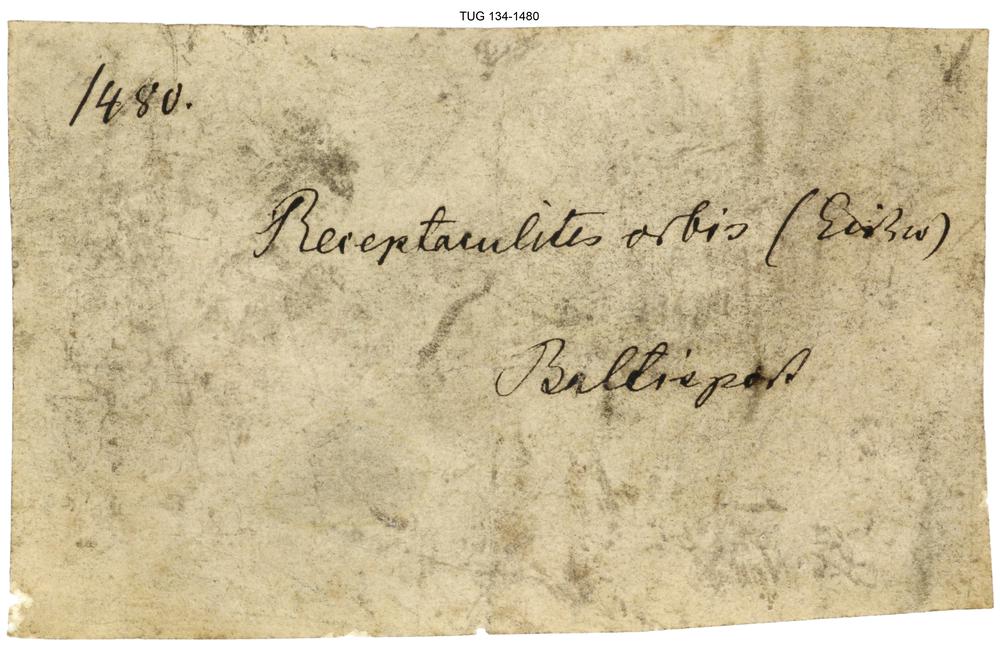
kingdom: Plantae
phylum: Chlorophyta
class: Chlorophyceae
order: Receptaculitales
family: Receptaculitaceae
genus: Receptaculites
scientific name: Receptaculites
